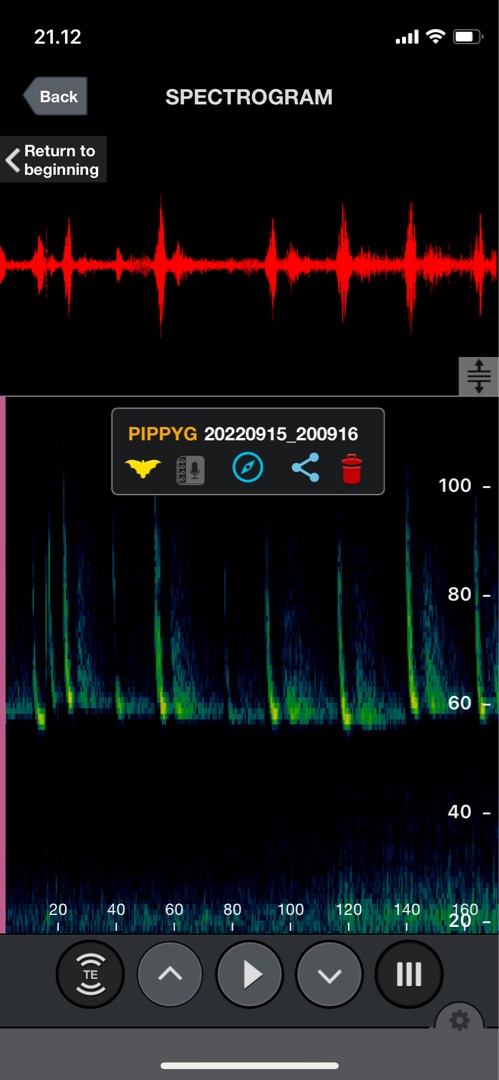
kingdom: Animalia
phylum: Chordata
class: Mammalia
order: Chiroptera
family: Vespertilionidae
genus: Pipistrellus
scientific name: Pipistrellus pygmaeus
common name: Dværgflagermus
